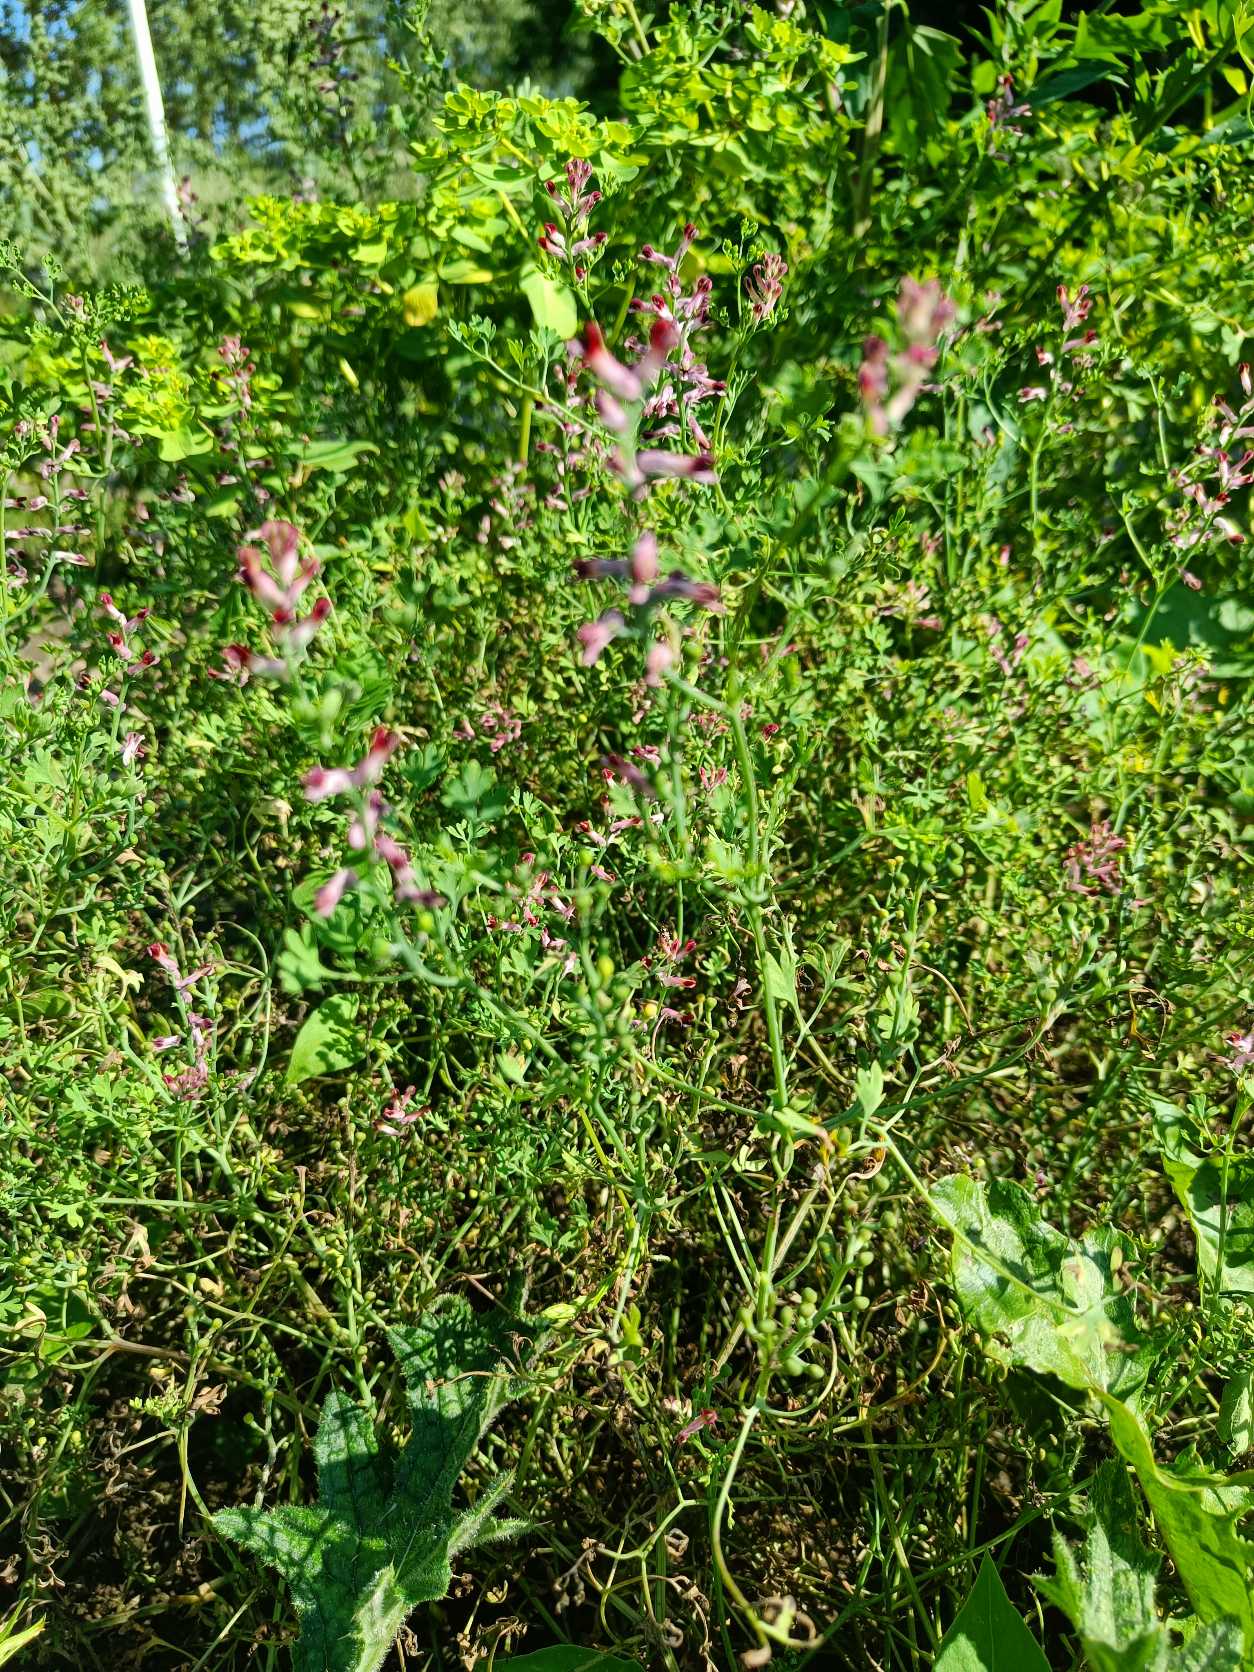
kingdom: Plantae
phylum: Tracheophyta
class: Magnoliopsida
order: Ranunculales
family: Papaveraceae
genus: Fumaria
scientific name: Fumaria officinalis
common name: Læge-jordrøg
